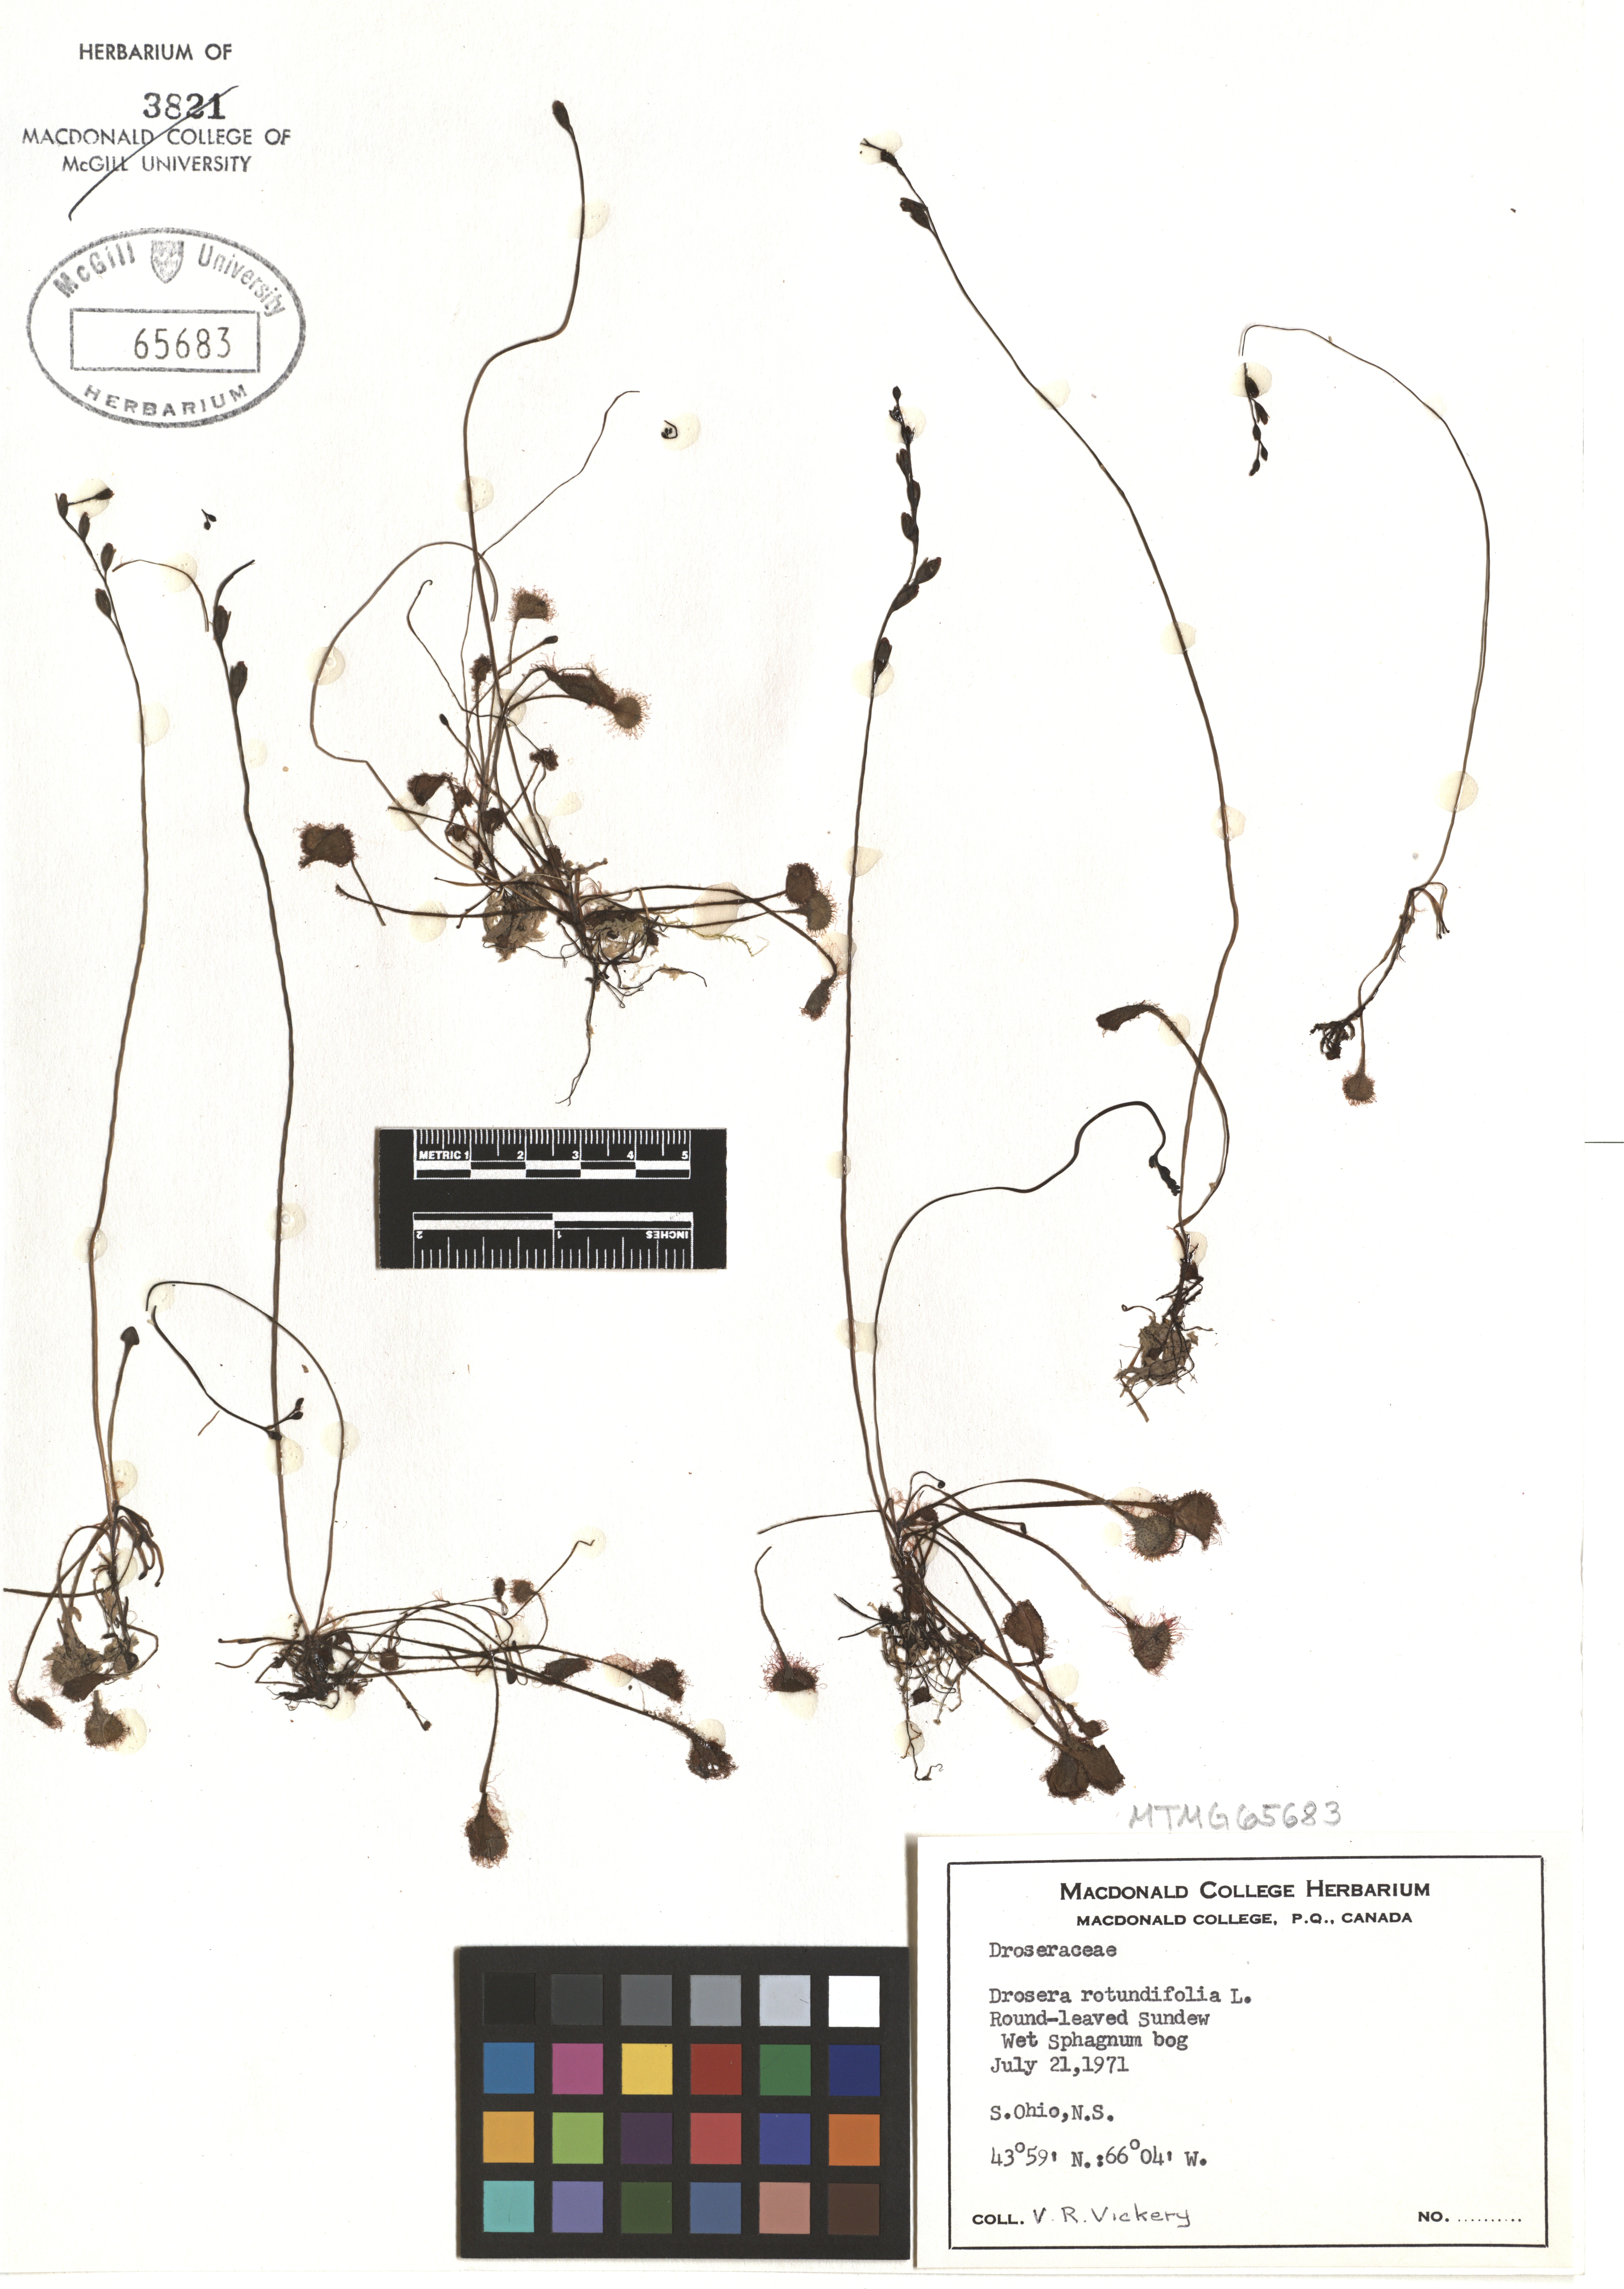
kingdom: Plantae
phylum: Tracheophyta
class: Magnoliopsida
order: Caryophyllales
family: Droseraceae
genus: Drosera
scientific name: Drosera rotundifolia
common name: Round-leaved sundew
